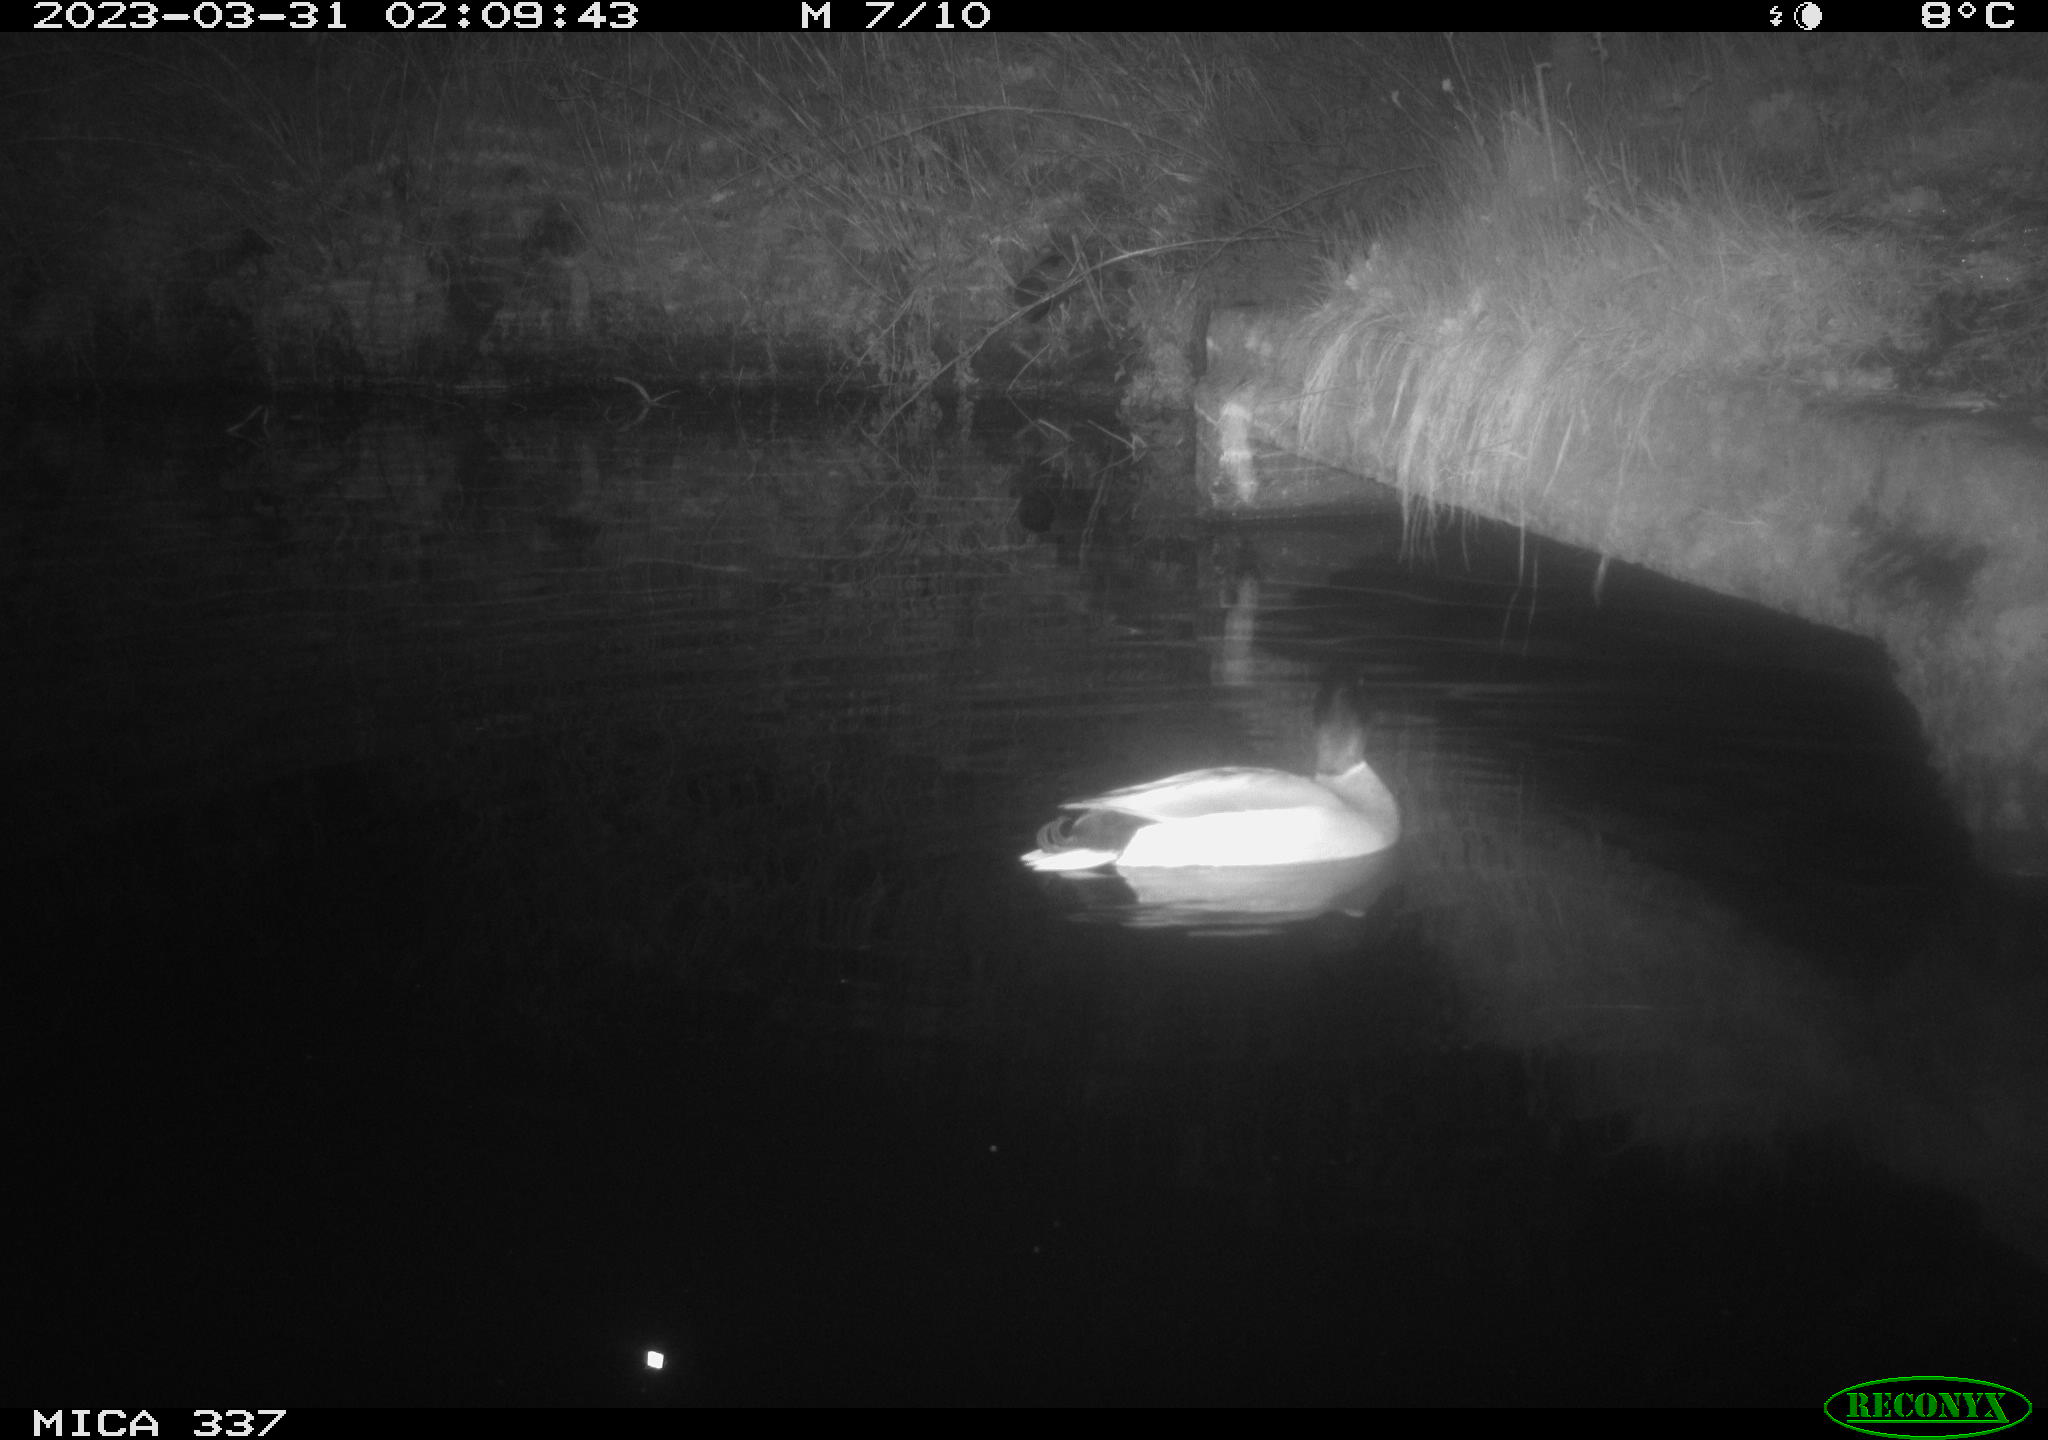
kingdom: Animalia
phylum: Chordata
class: Aves
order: Anseriformes
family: Anatidae
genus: Anas
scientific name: Anas
